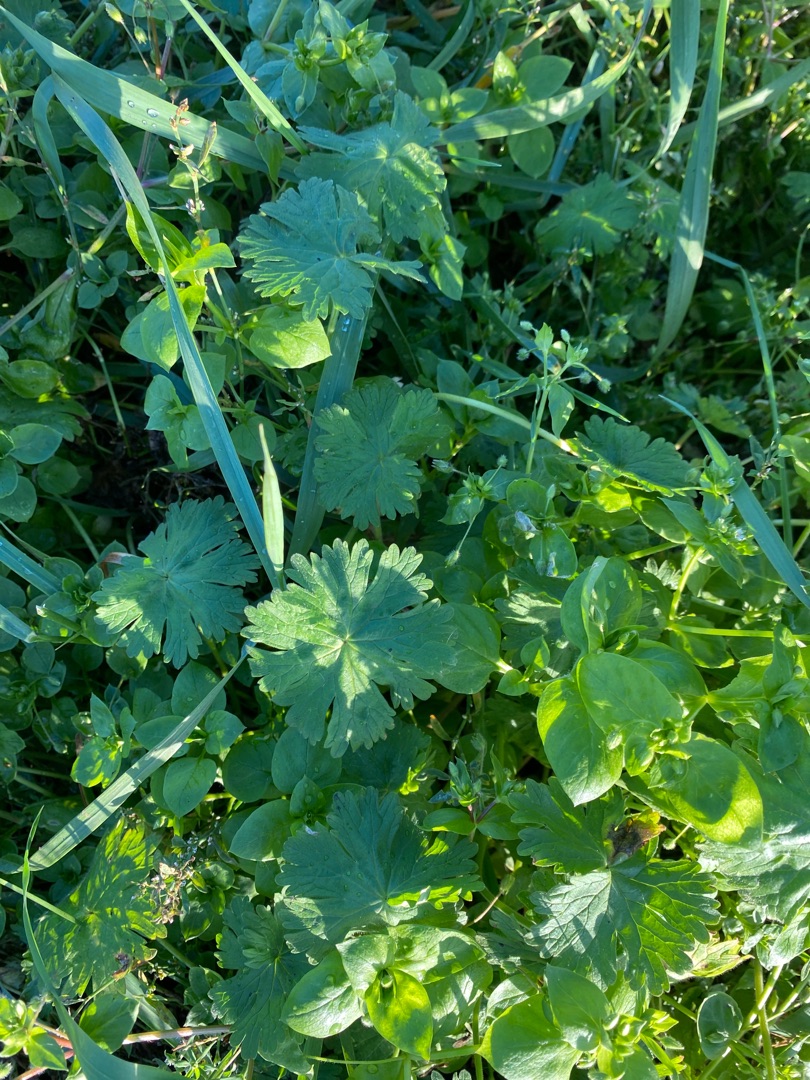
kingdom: Plantae
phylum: Tracheophyta
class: Magnoliopsida
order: Geraniales
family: Geraniaceae
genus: Geranium
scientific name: Geranium pyrenaicum
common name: Pyrenæisk storkenæb
